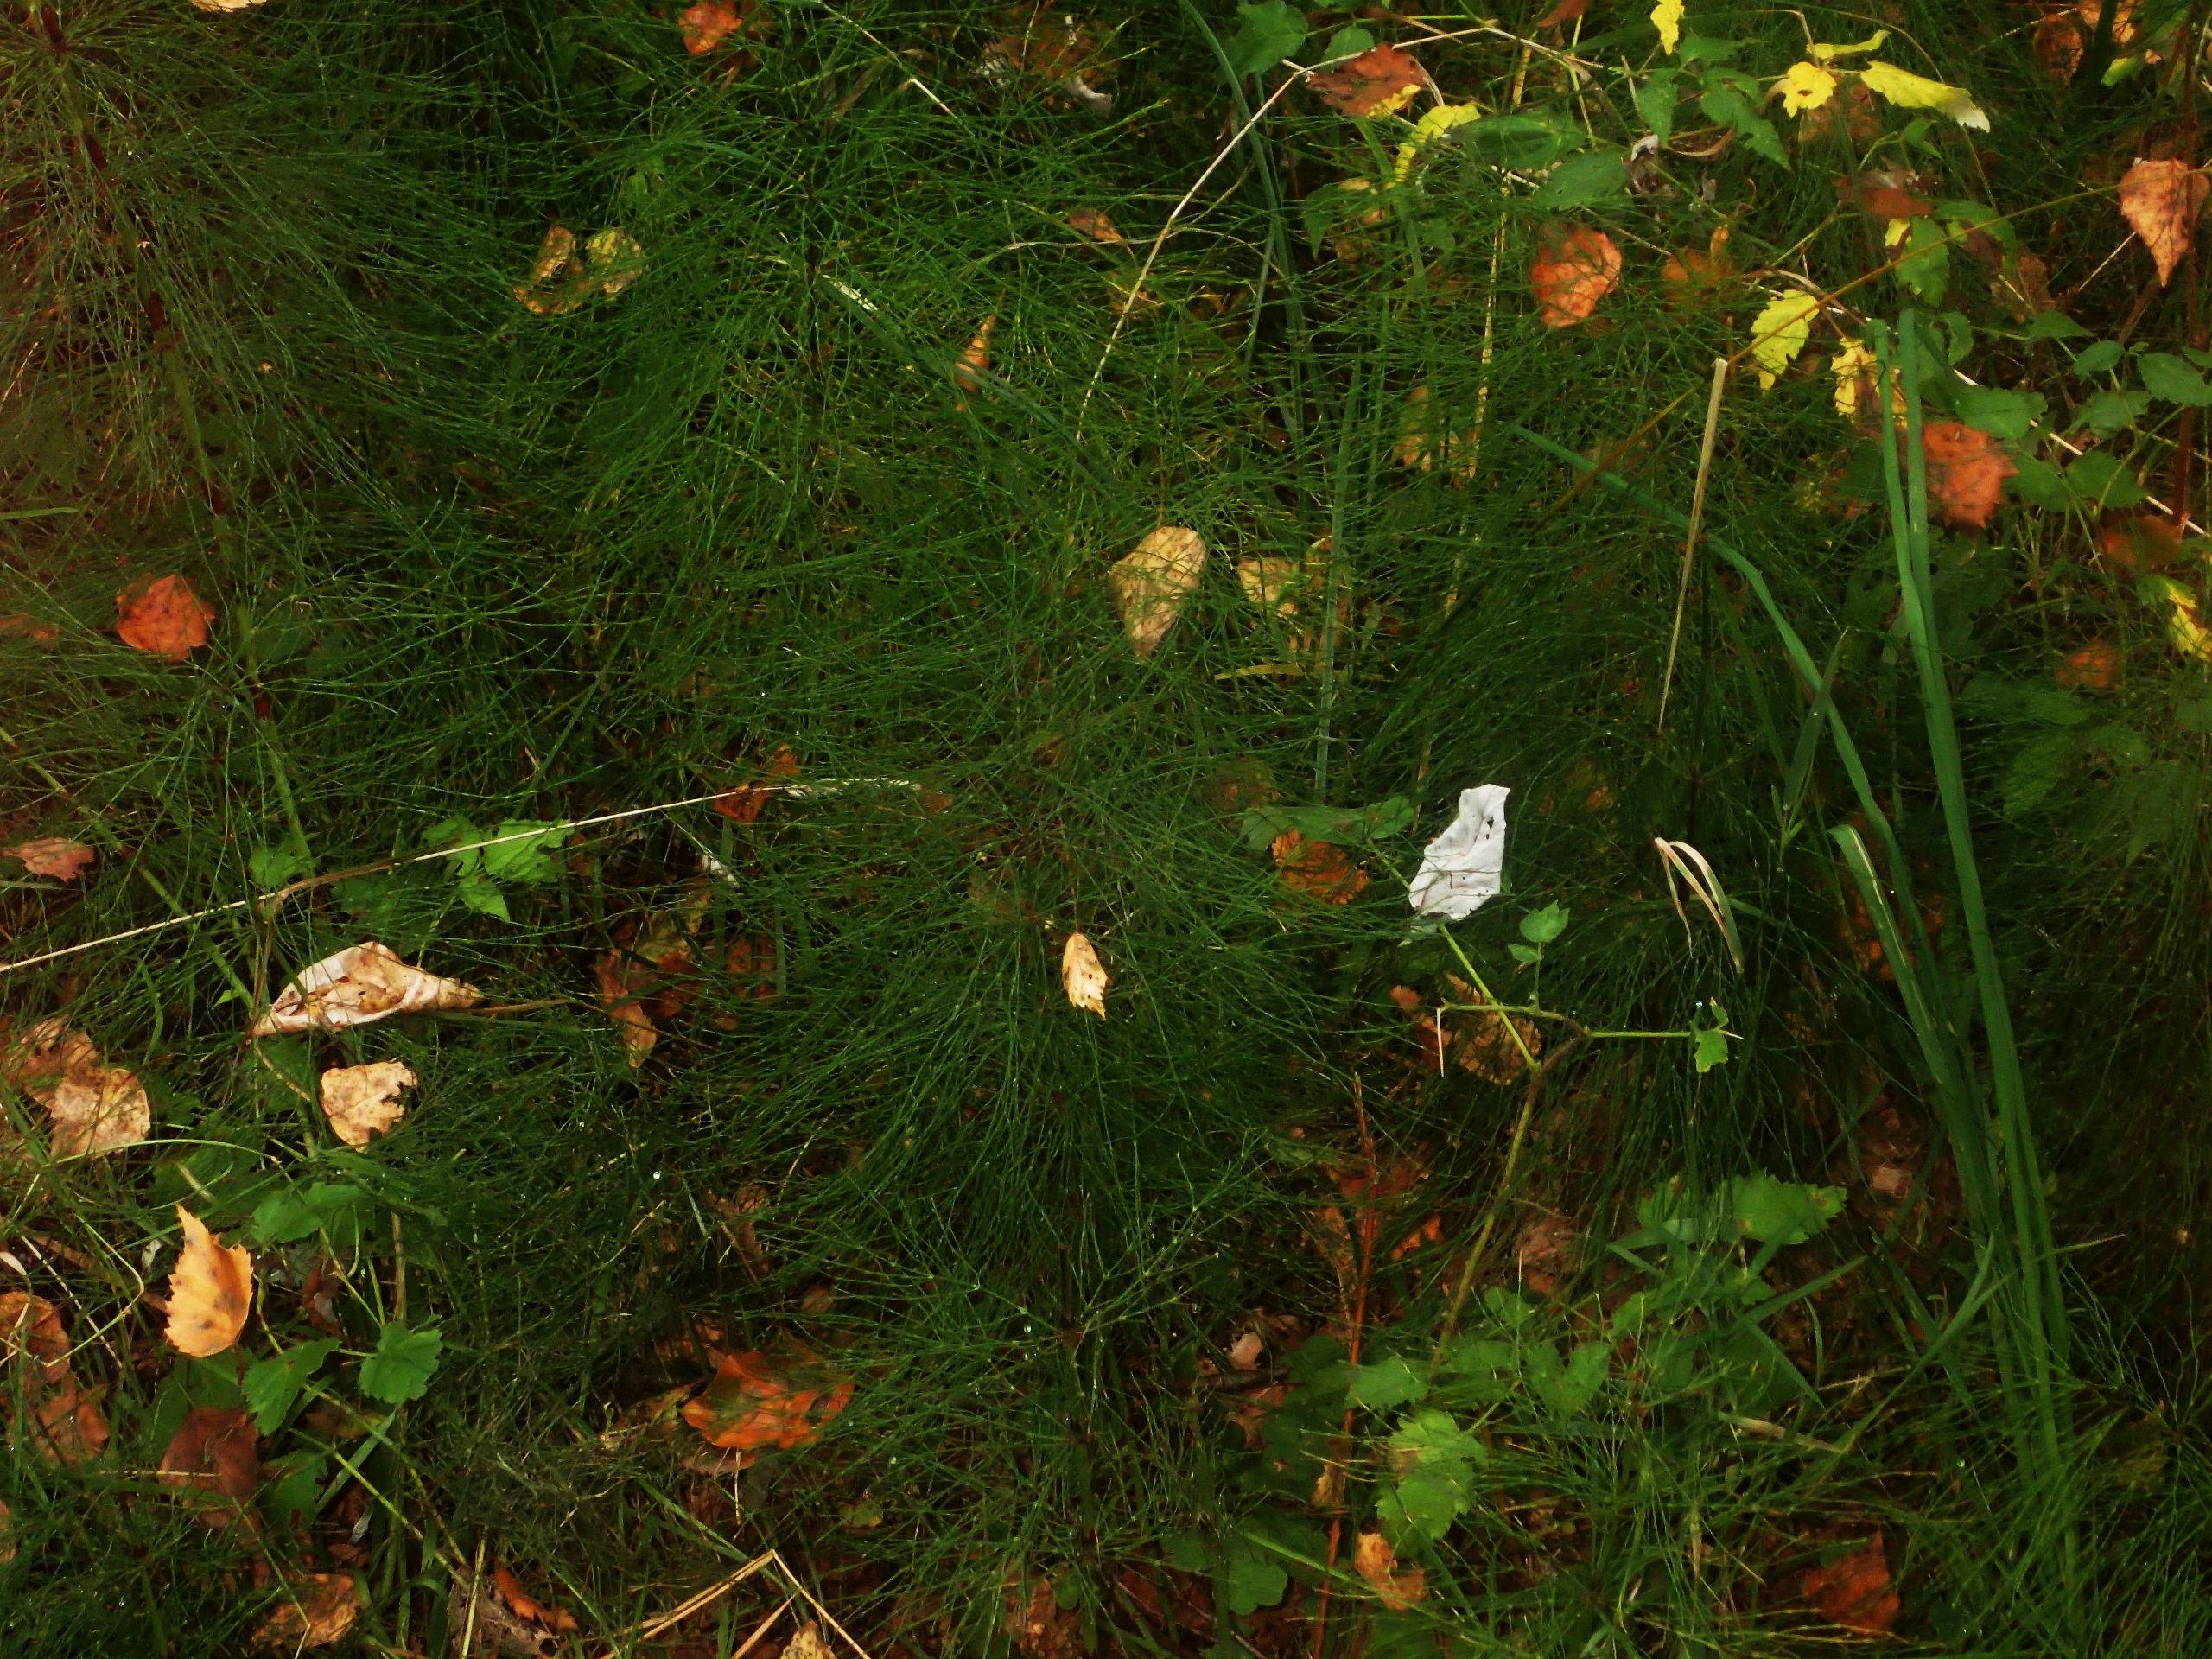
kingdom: Plantae
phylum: Tracheophyta
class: Polypodiopsida
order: Equisetales
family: Equisetaceae
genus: Equisetum
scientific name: Equisetum sylvaticum
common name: Skov-padderok
